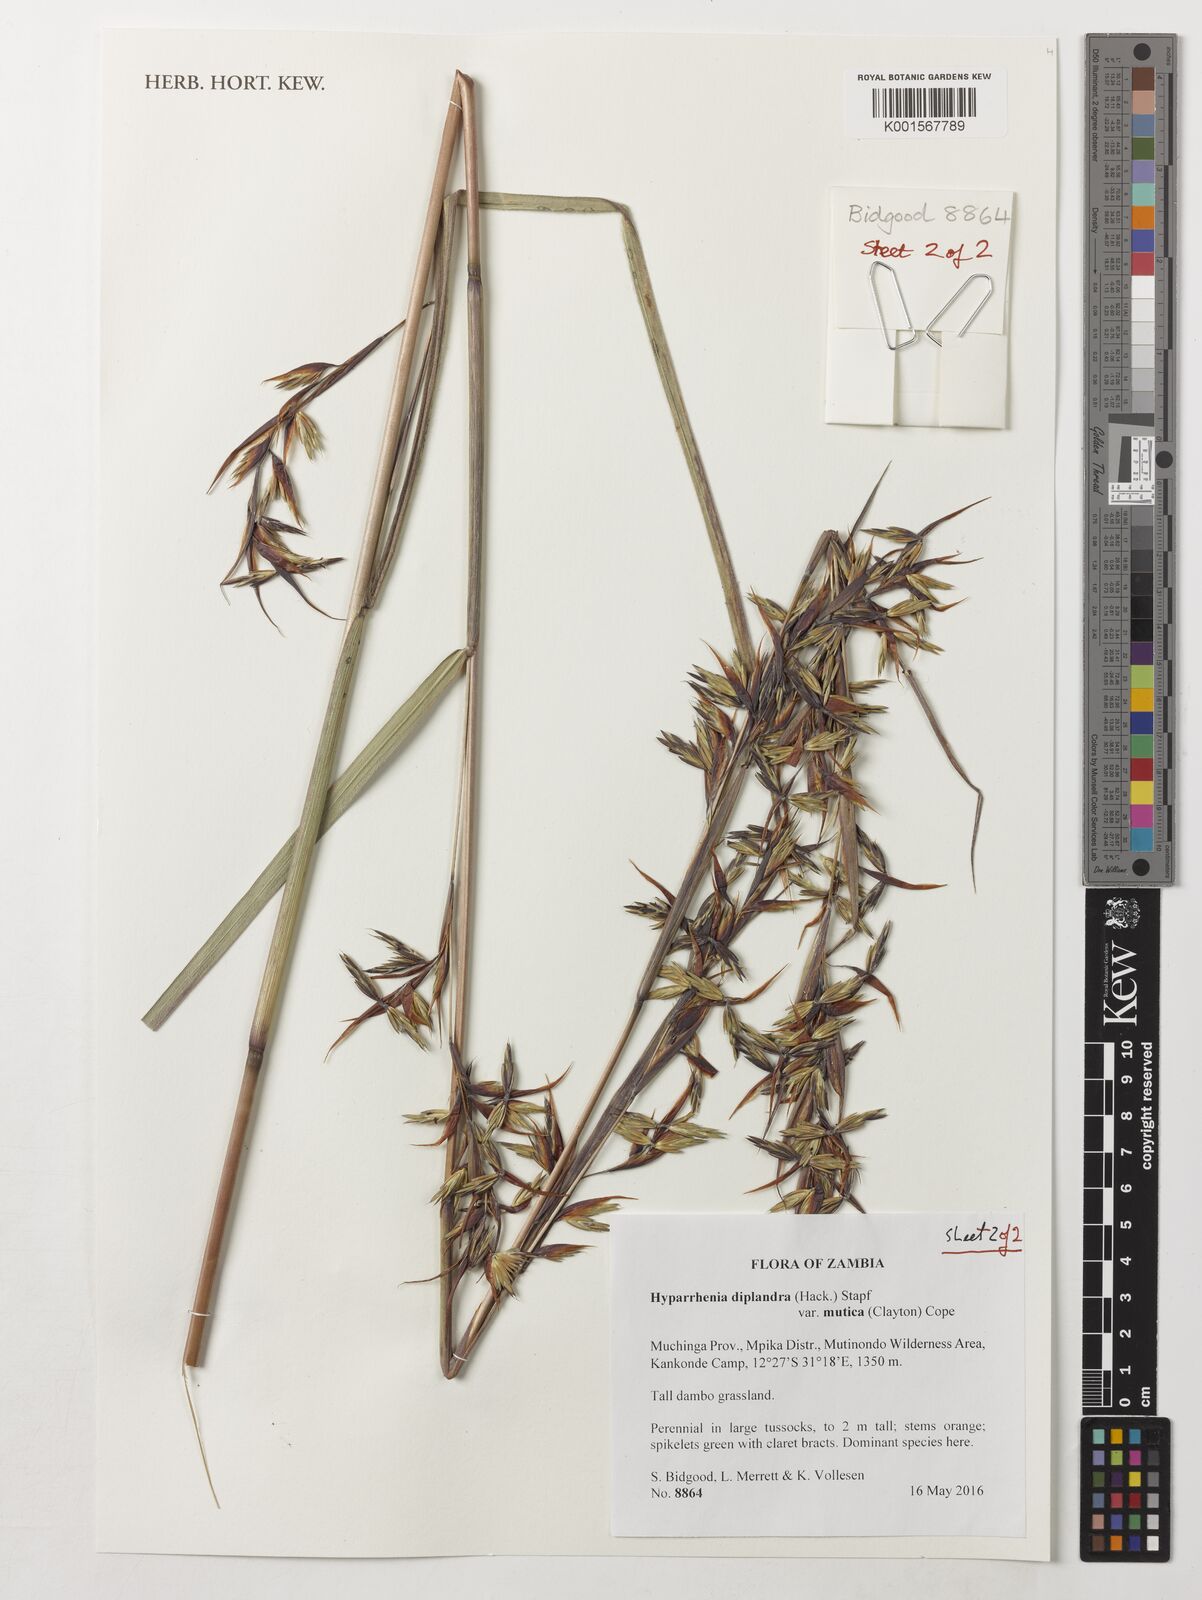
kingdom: Plantae
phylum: Tracheophyta
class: Liliopsida
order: Poales
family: Poaceae
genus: Hyparrhenia
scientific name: Hyparrhenia diplandra
